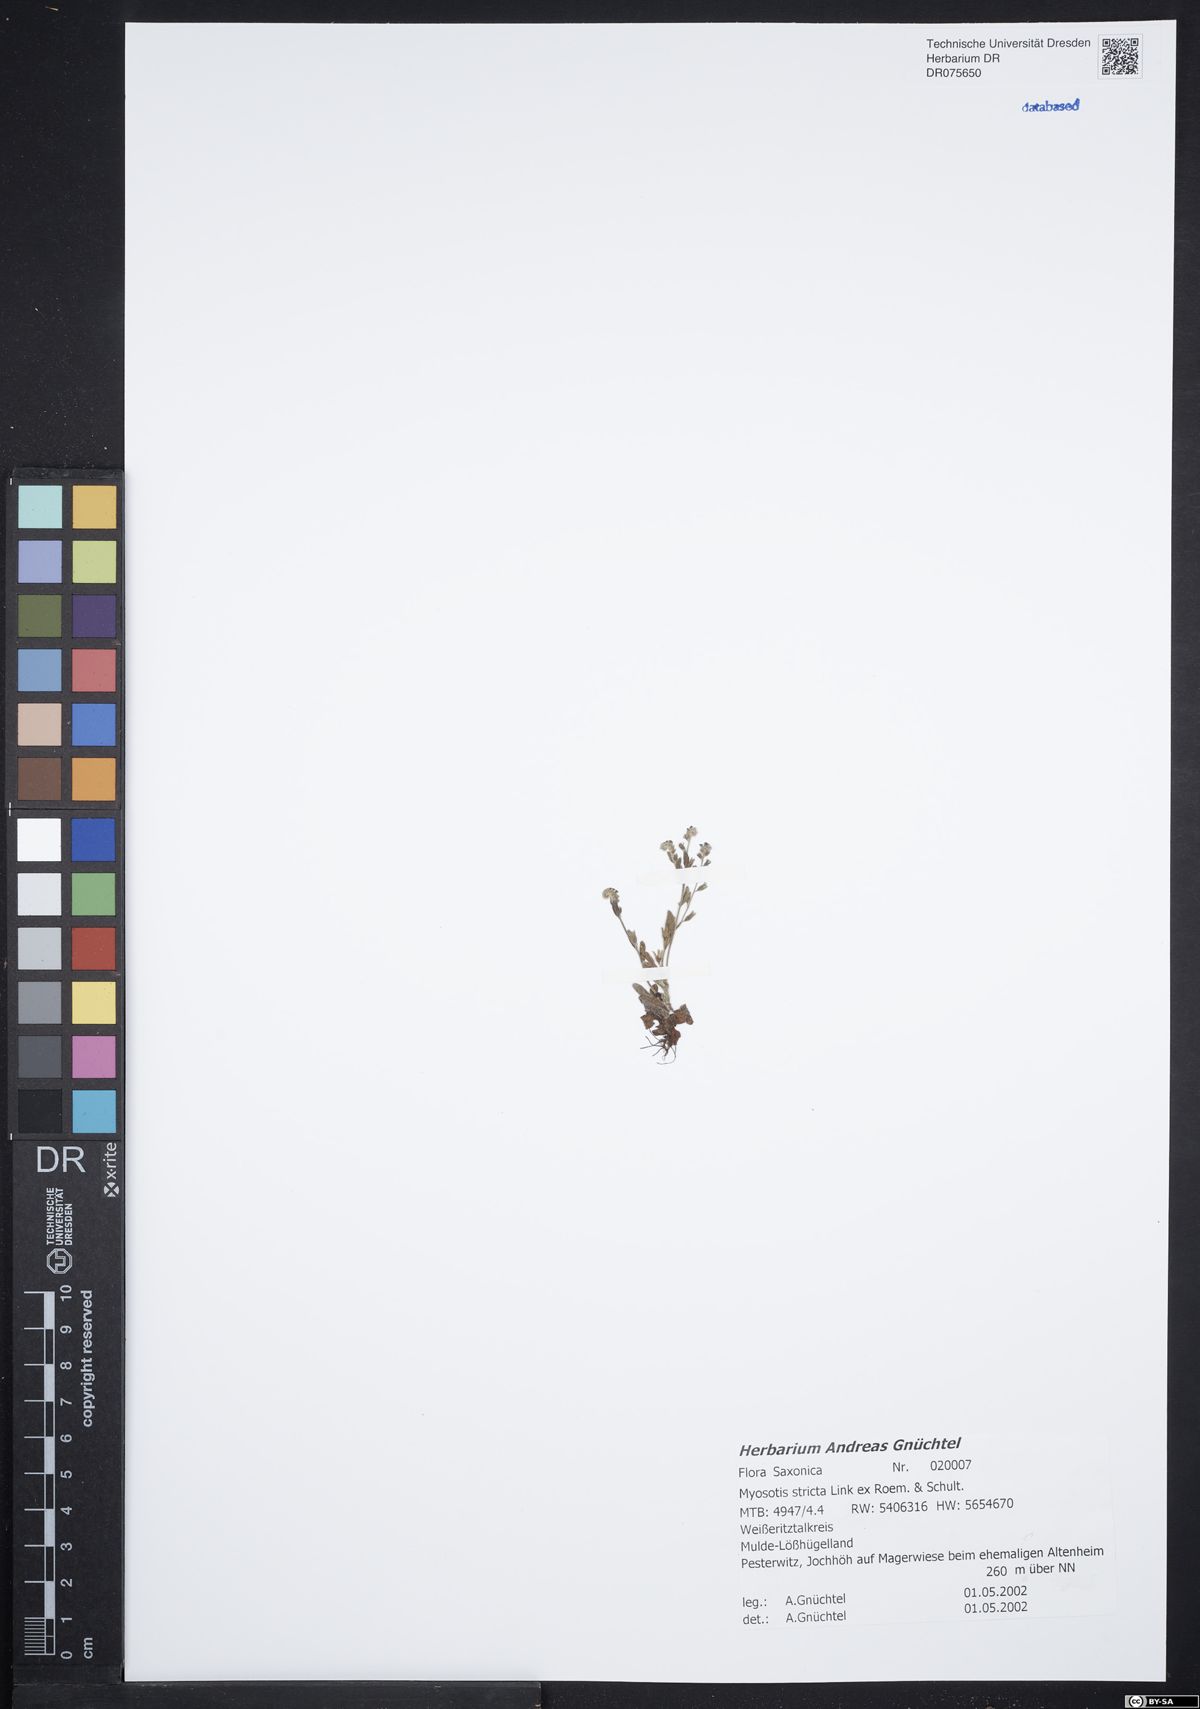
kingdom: Plantae
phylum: Tracheophyta
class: Magnoliopsida
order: Boraginales
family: Boraginaceae
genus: Myosotis
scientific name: Myosotis stricta
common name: Strict forget-me-not
